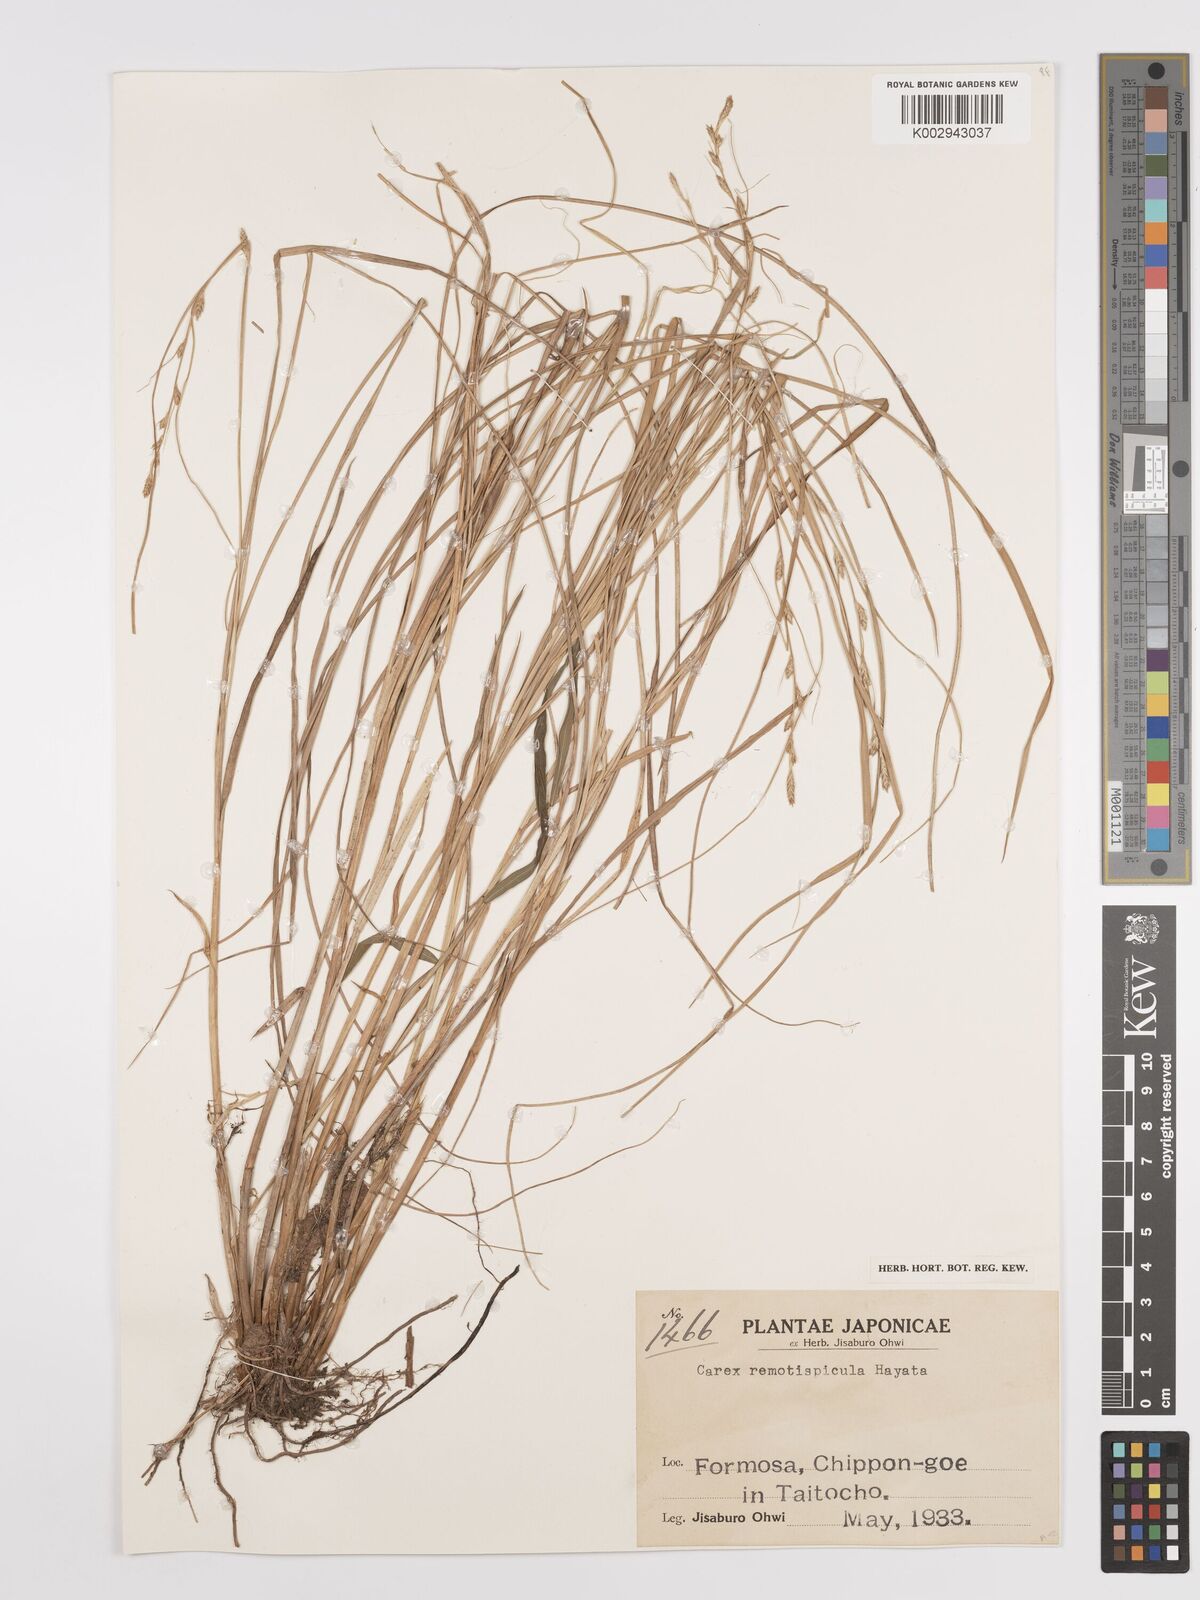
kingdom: Plantae
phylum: Tracheophyta
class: Liliopsida
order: Poales
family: Cyperaceae
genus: Carex
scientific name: Carex rochebrunei
